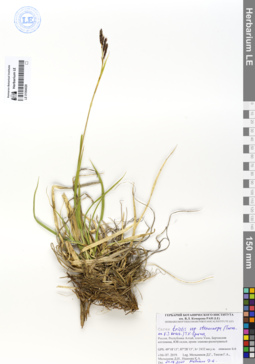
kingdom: Plantae
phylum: Tracheophyta
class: Liliopsida
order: Poales
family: Cyperaceae
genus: Carex
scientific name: Carex stenocarpa
